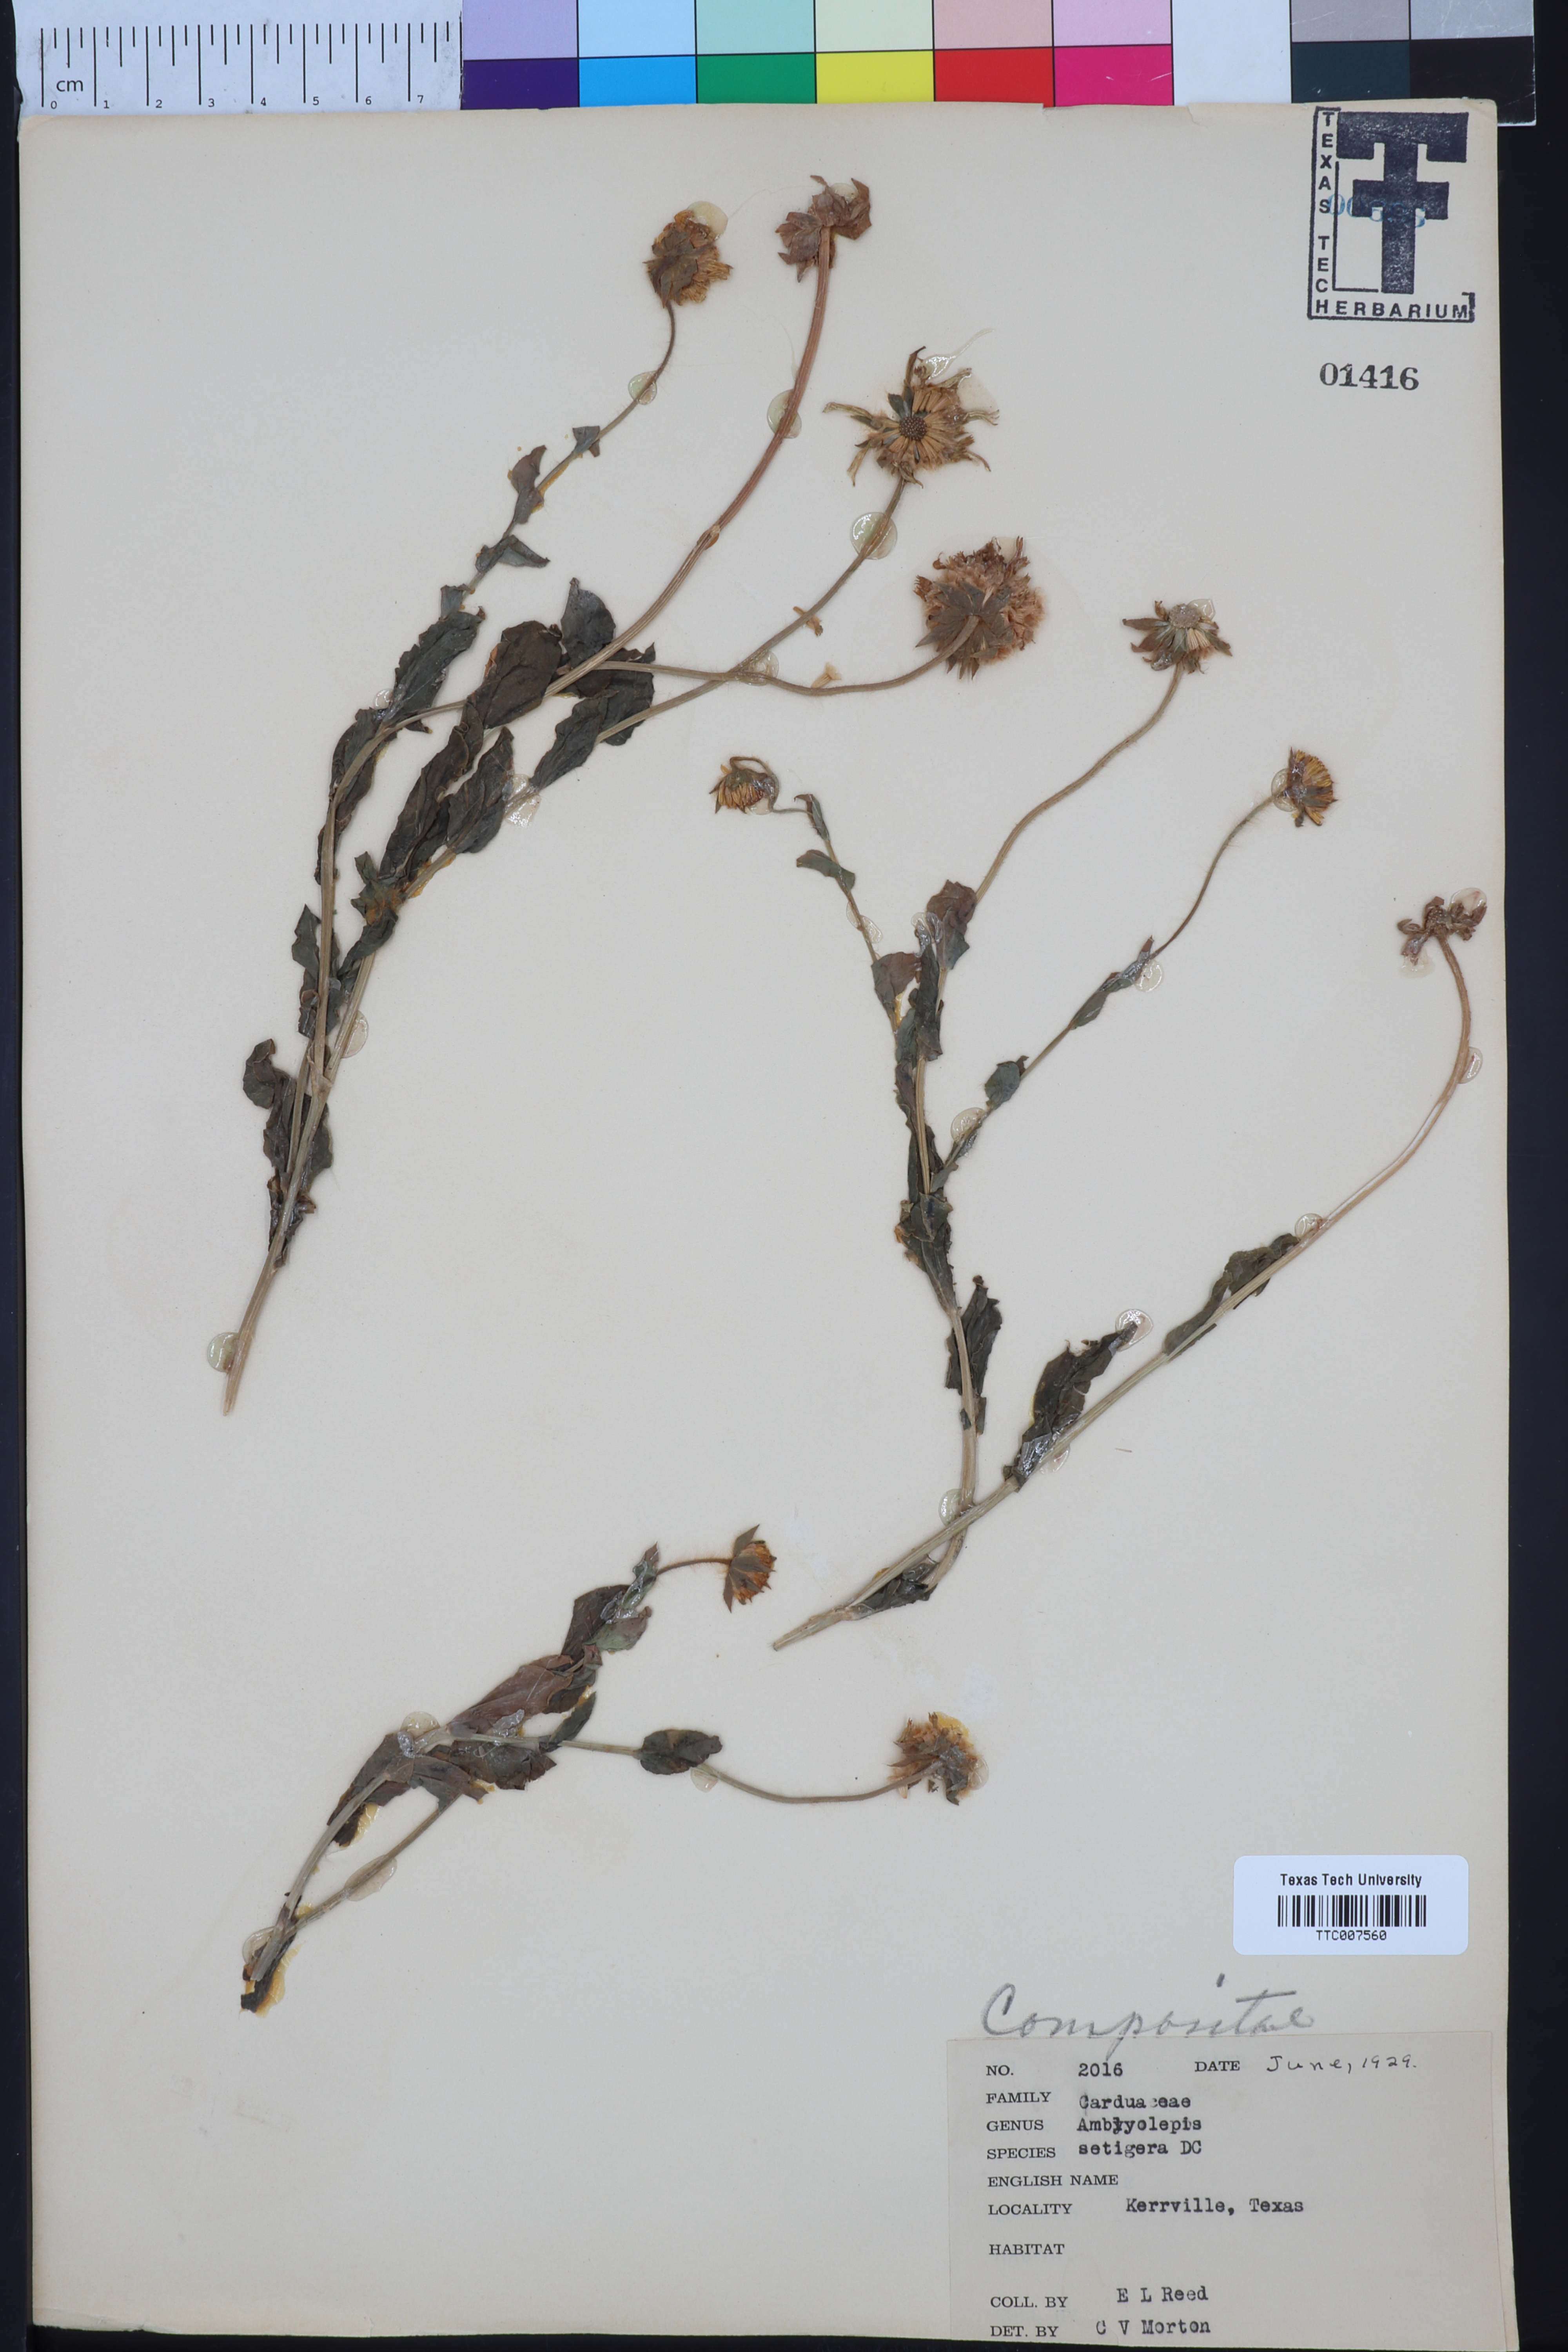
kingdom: Plantae
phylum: Tracheophyta
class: Magnoliopsida
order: Asterales
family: Asteraceae
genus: Amblyolepis
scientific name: Amblyolepis setigera
